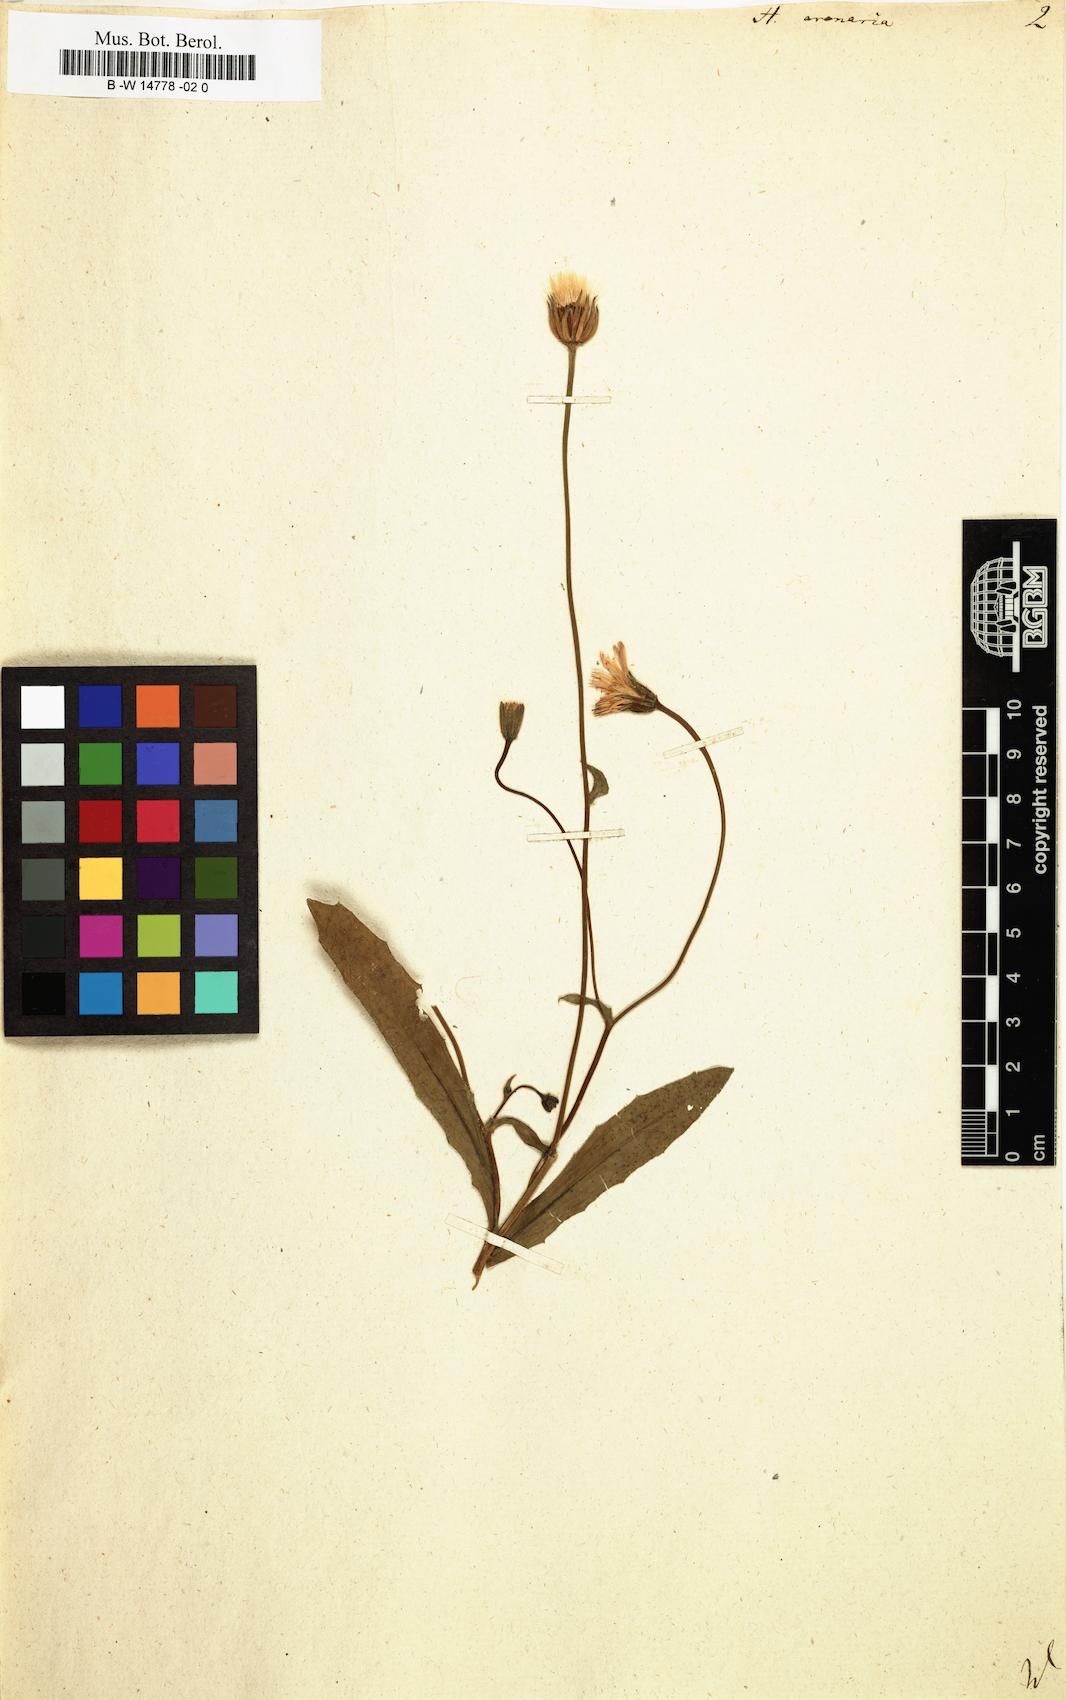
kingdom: Plantae
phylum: Tracheophyta
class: Magnoliopsida
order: Asterales
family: Asteraceae
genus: Hedypnois
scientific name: Hedypnois arenaria
